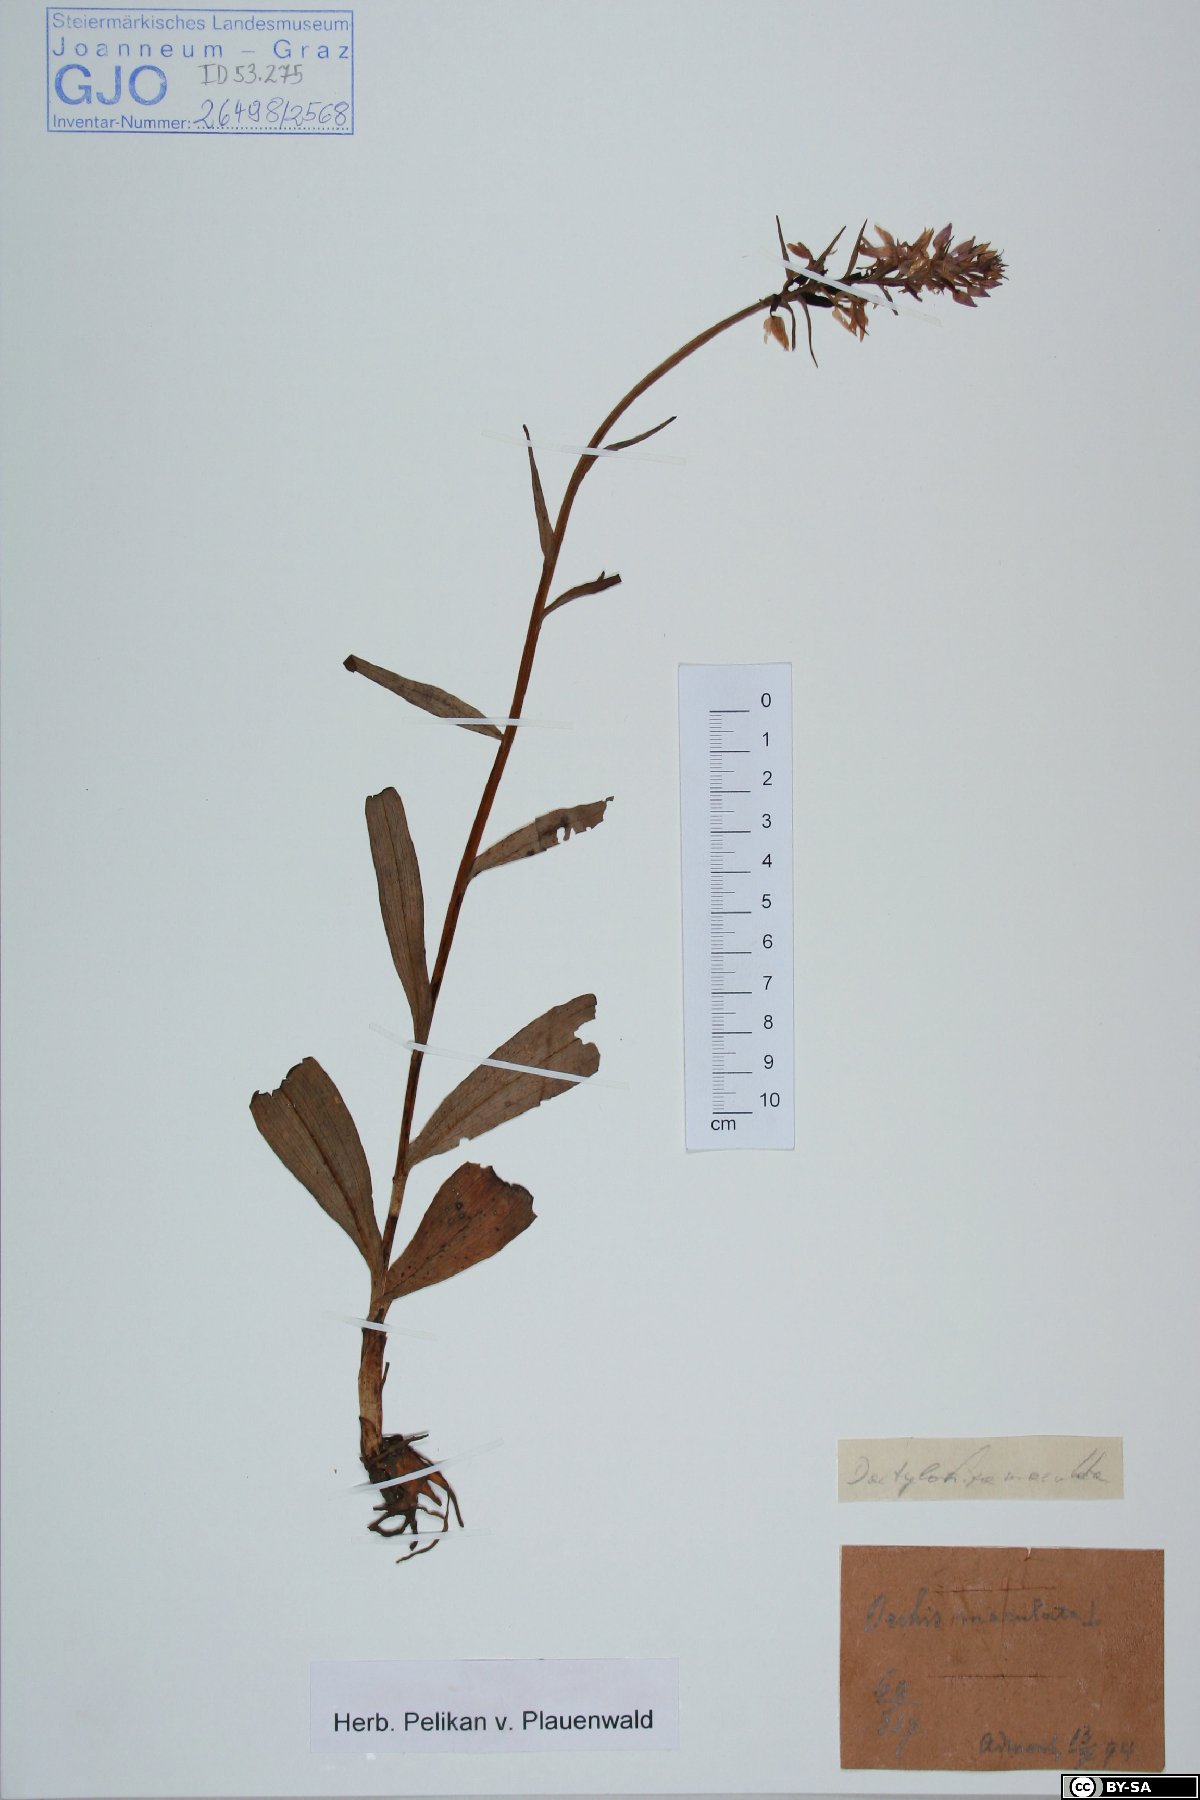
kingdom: Plantae
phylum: Tracheophyta
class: Liliopsida
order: Asparagales
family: Orchidaceae
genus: Dactylorhiza
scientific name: Dactylorhiza maculata
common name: Heath spotted-orchid
